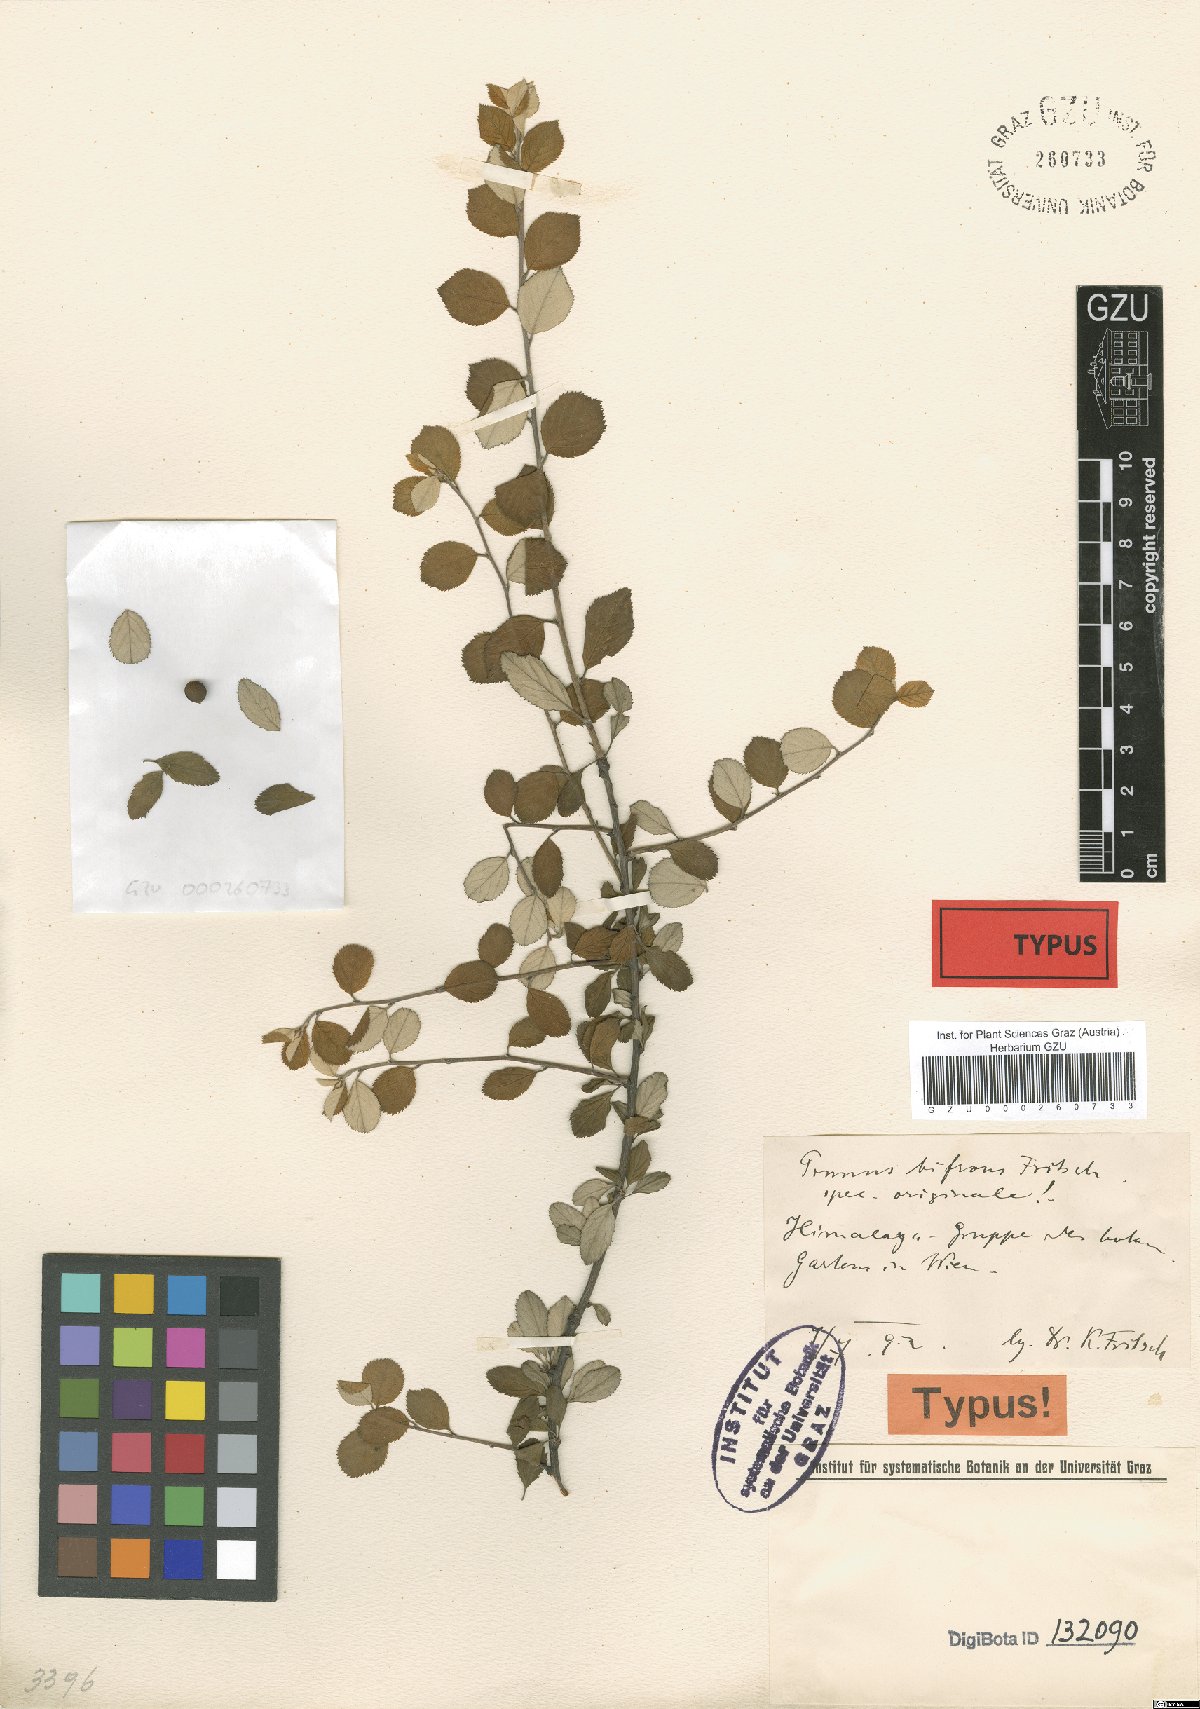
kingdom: Plantae
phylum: Tracheophyta
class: Magnoliopsida
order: Rosales
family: Rosaceae
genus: Prunus
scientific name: Prunus bifrons
